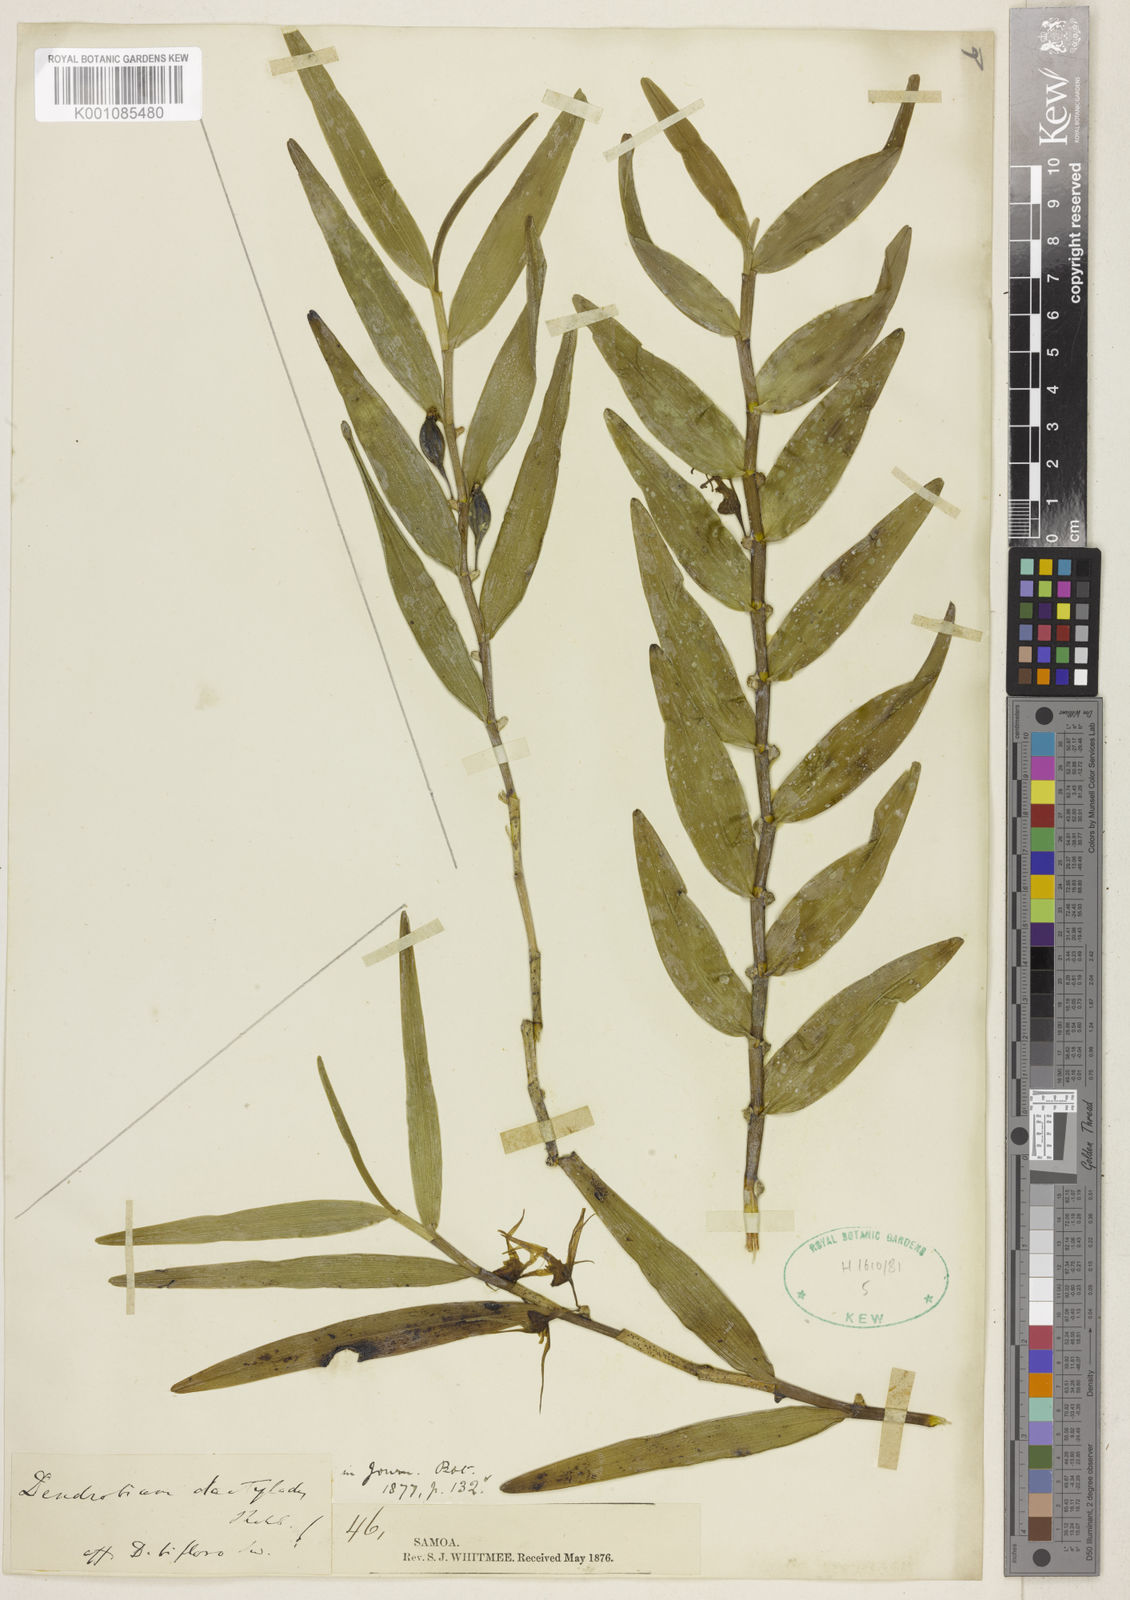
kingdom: Plantae
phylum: Tracheophyta
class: Liliopsida
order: Asparagales
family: Orchidaceae
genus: Dendrobium
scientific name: Dendrobium dactylodes
